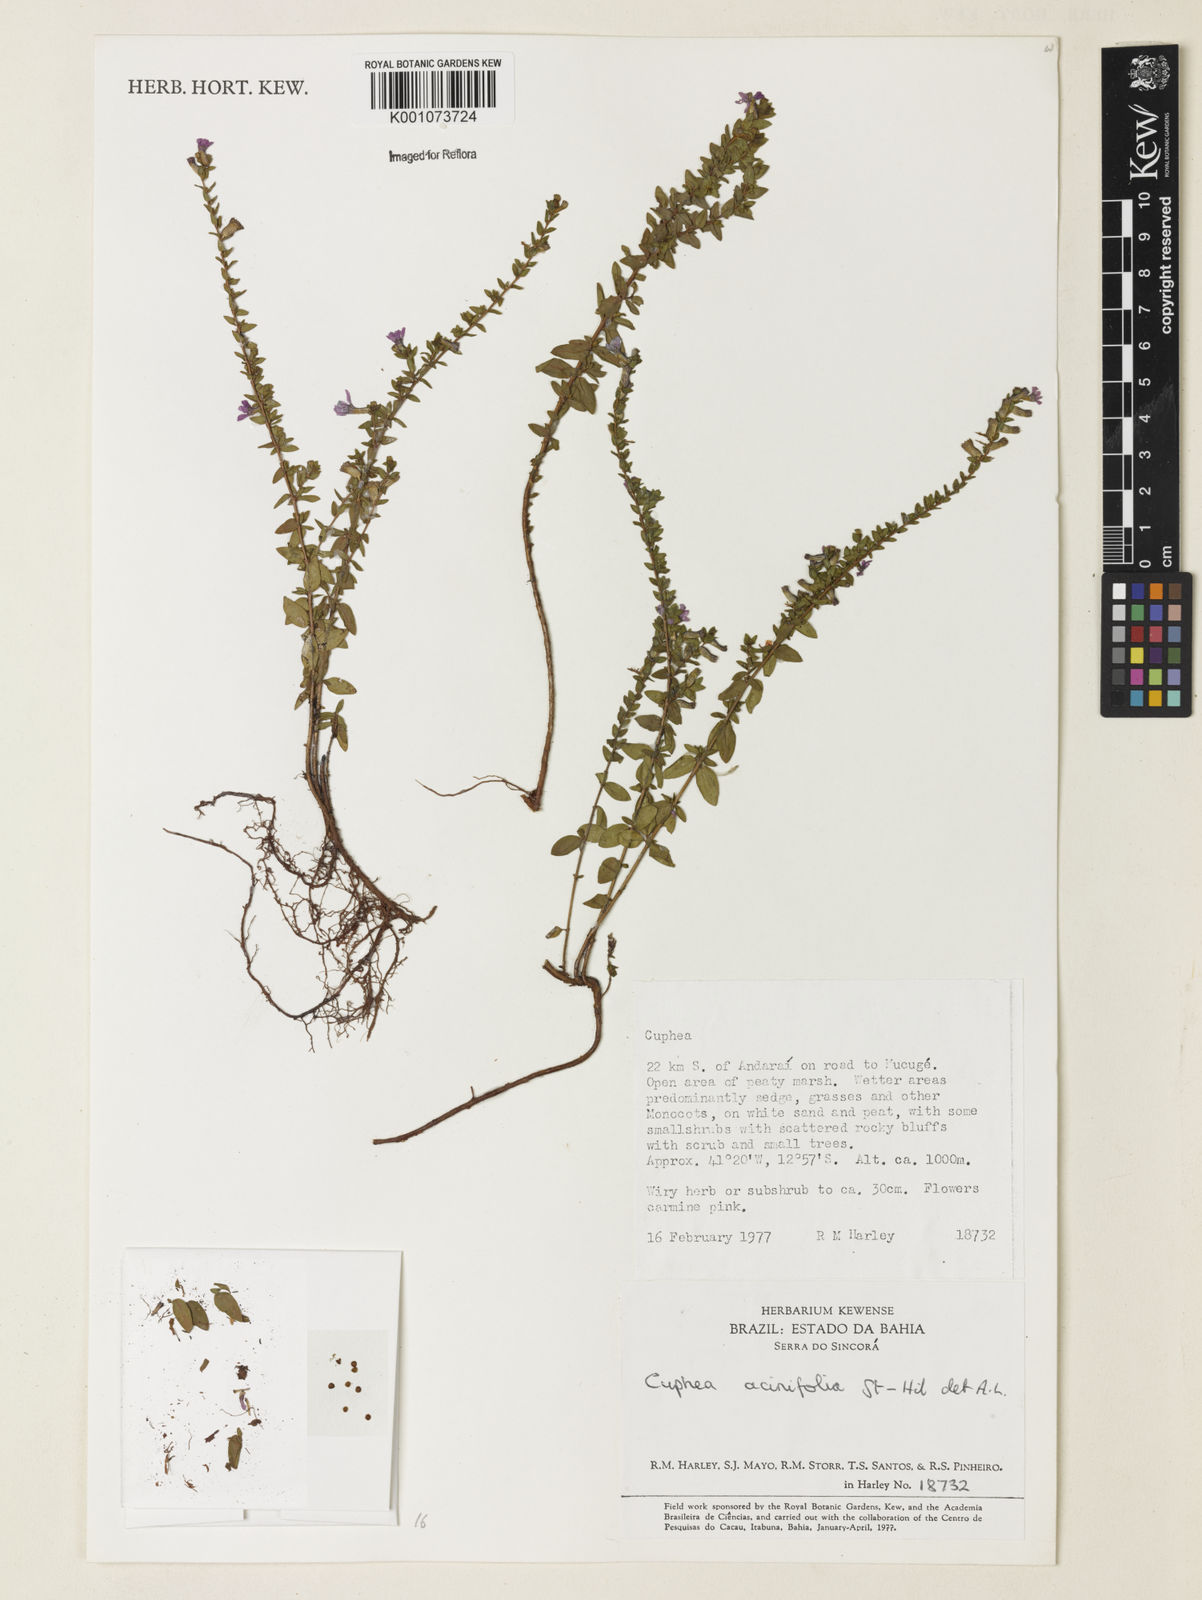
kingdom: Plantae
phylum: Tracheophyta
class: Magnoliopsida
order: Myrtales
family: Lythraceae
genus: Cuphea
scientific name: Cuphea acinifolia
